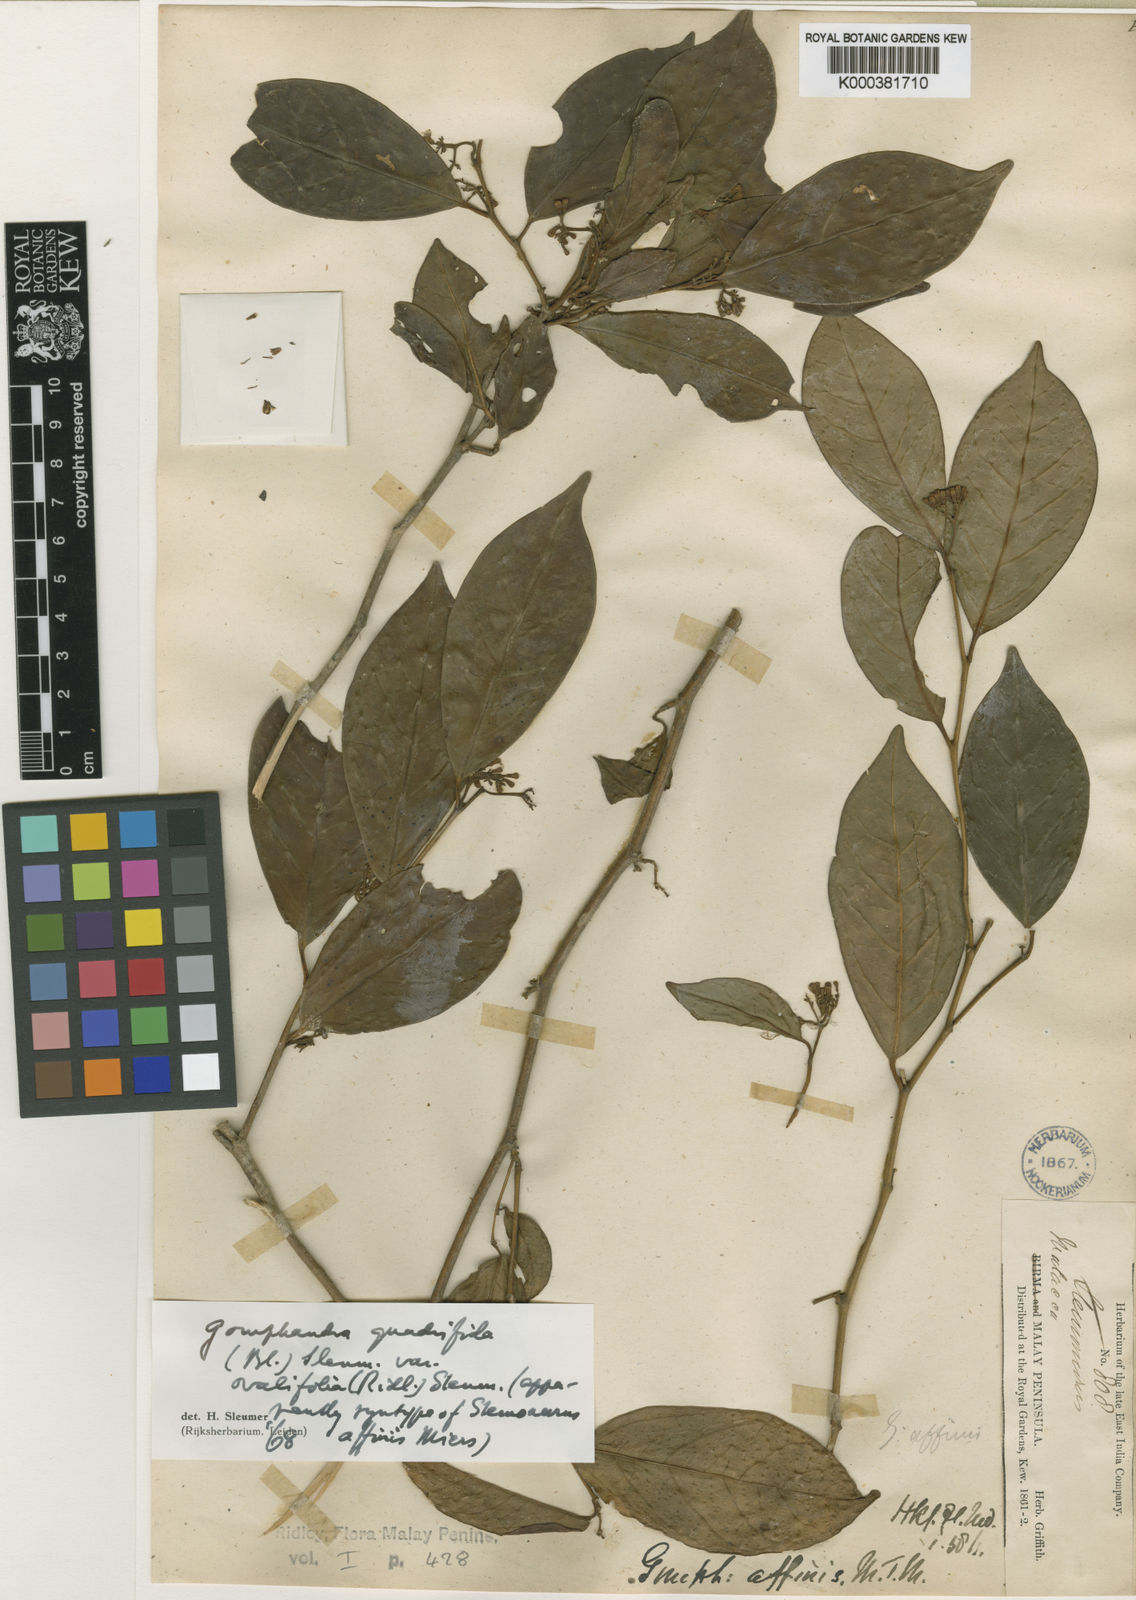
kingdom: Plantae
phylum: Tracheophyta
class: Magnoliopsida
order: Cardiopteridales
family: Stemonuraceae
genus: Gomphandra
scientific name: Gomphandra quadrifida
